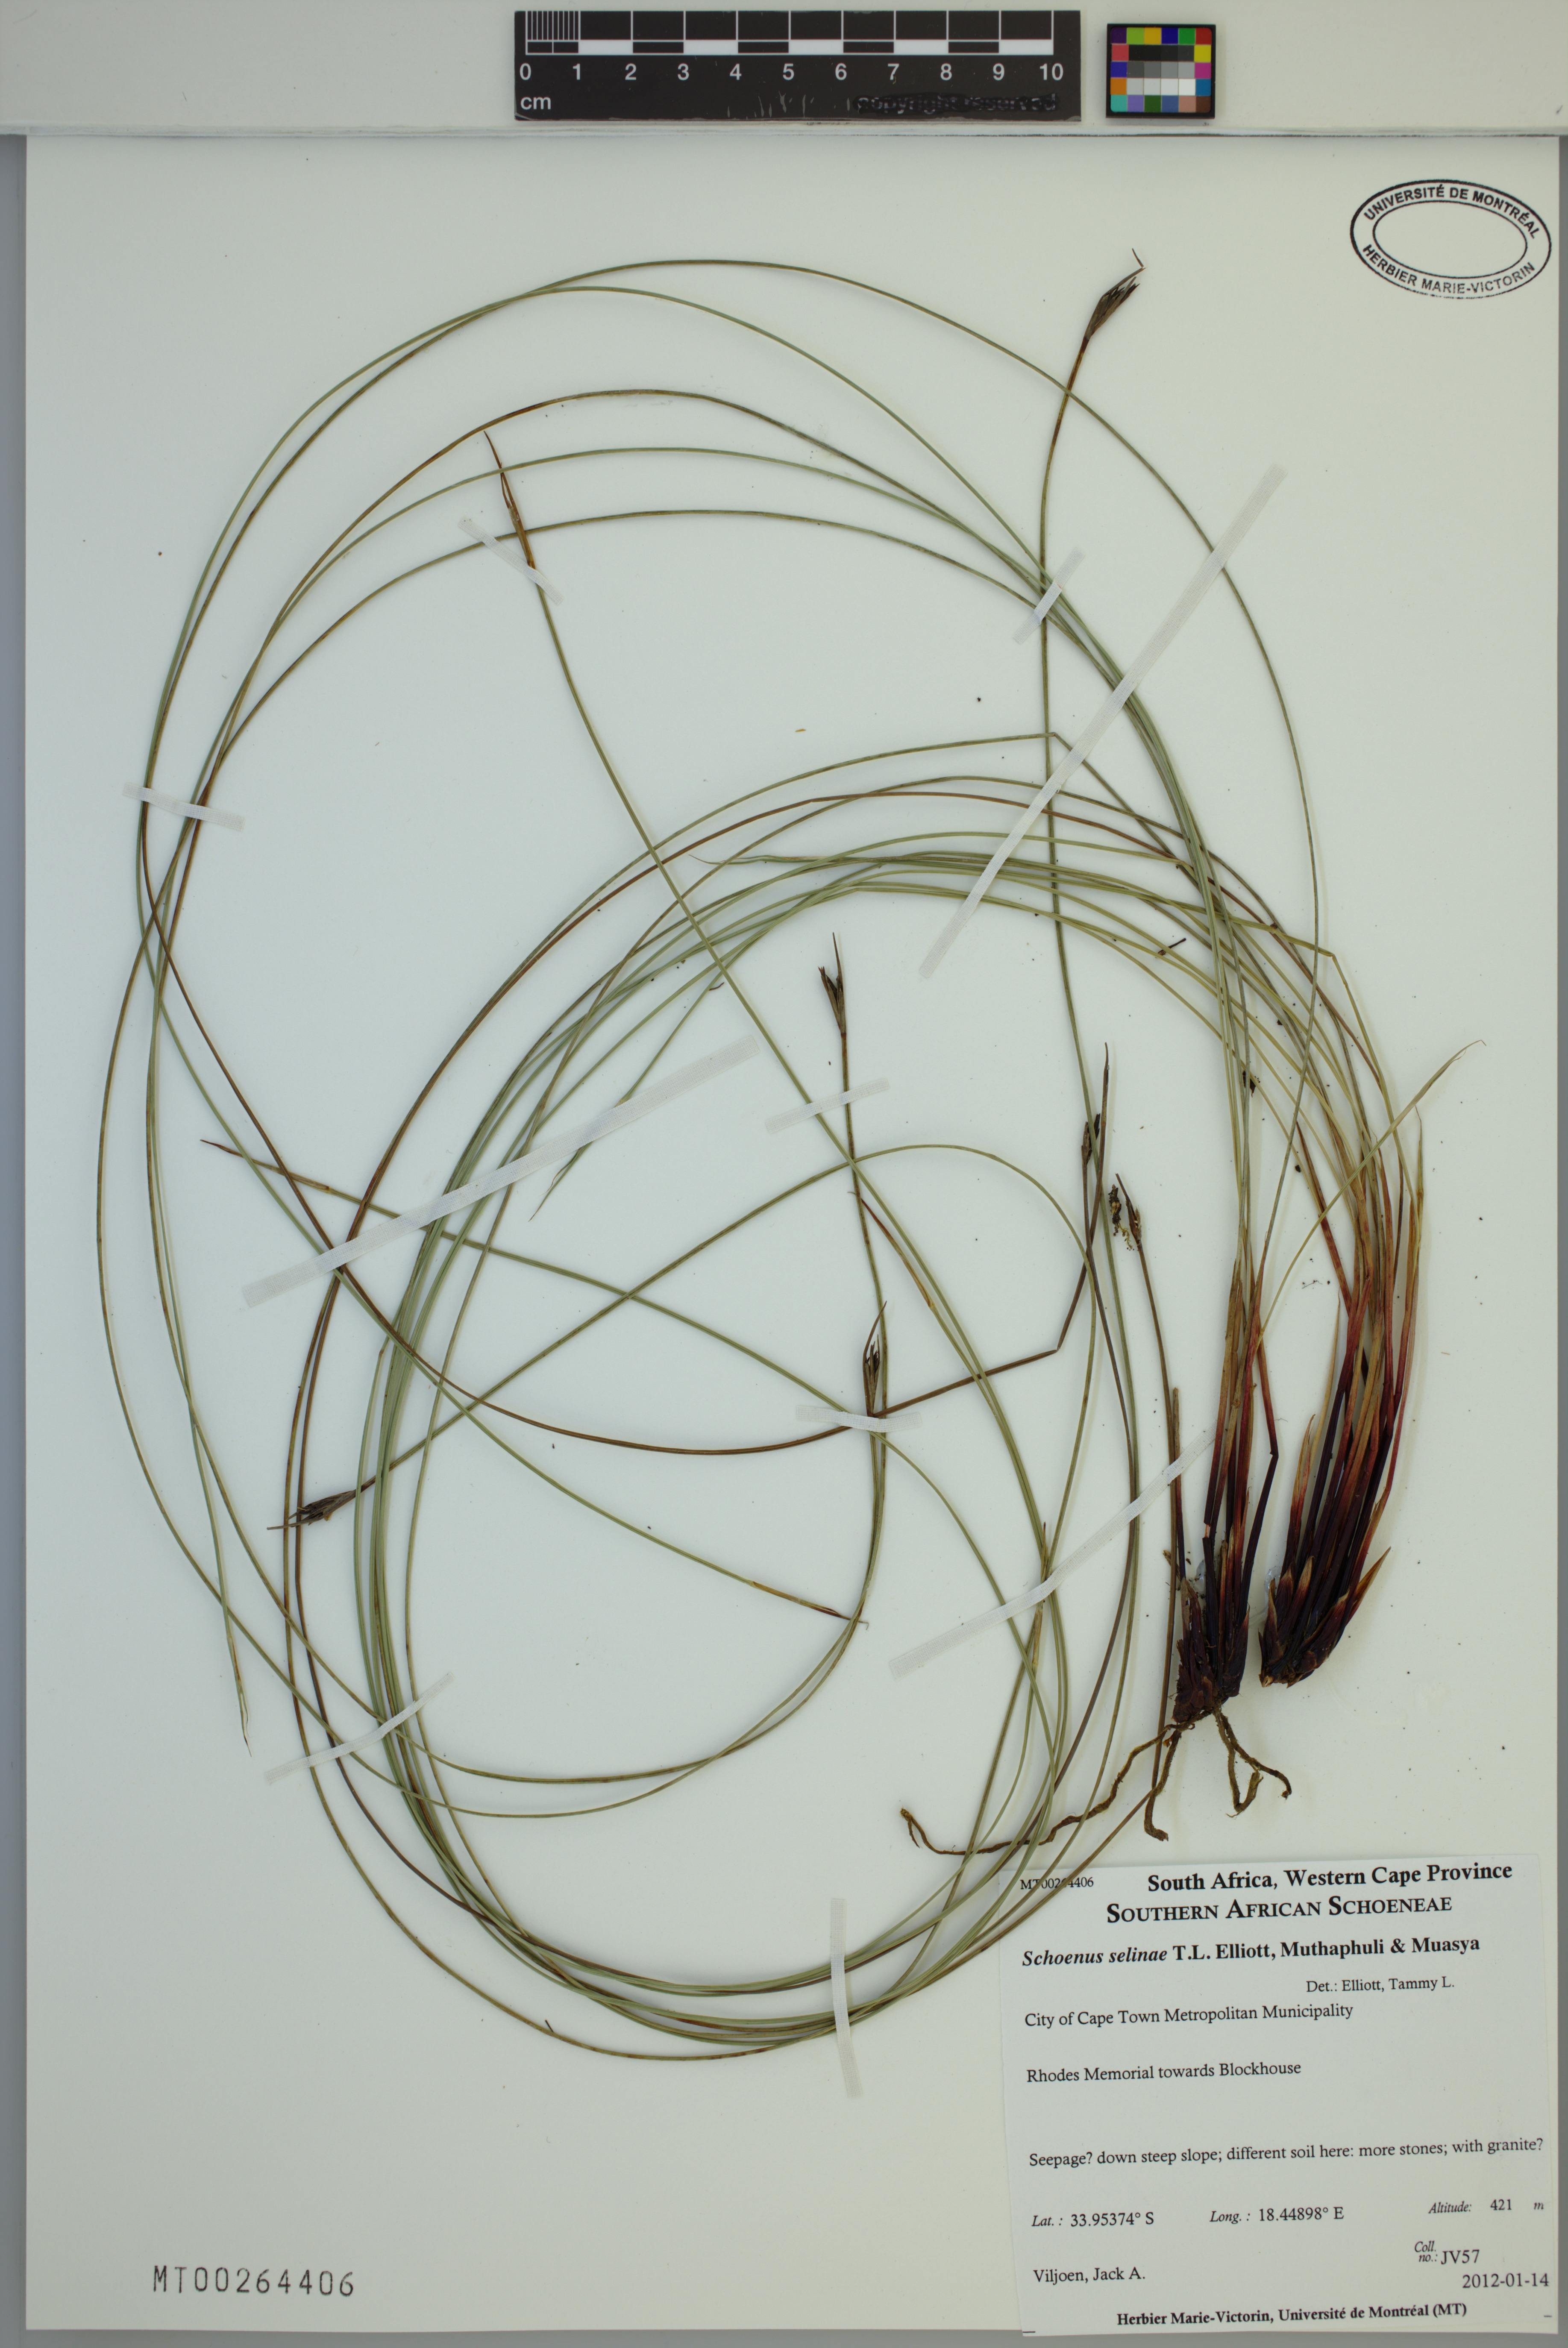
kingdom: Plantae
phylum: Tracheophyta
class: Liliopsida
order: Poales
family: Cyperaceae
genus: Schoenus
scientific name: Schoenus selinae
